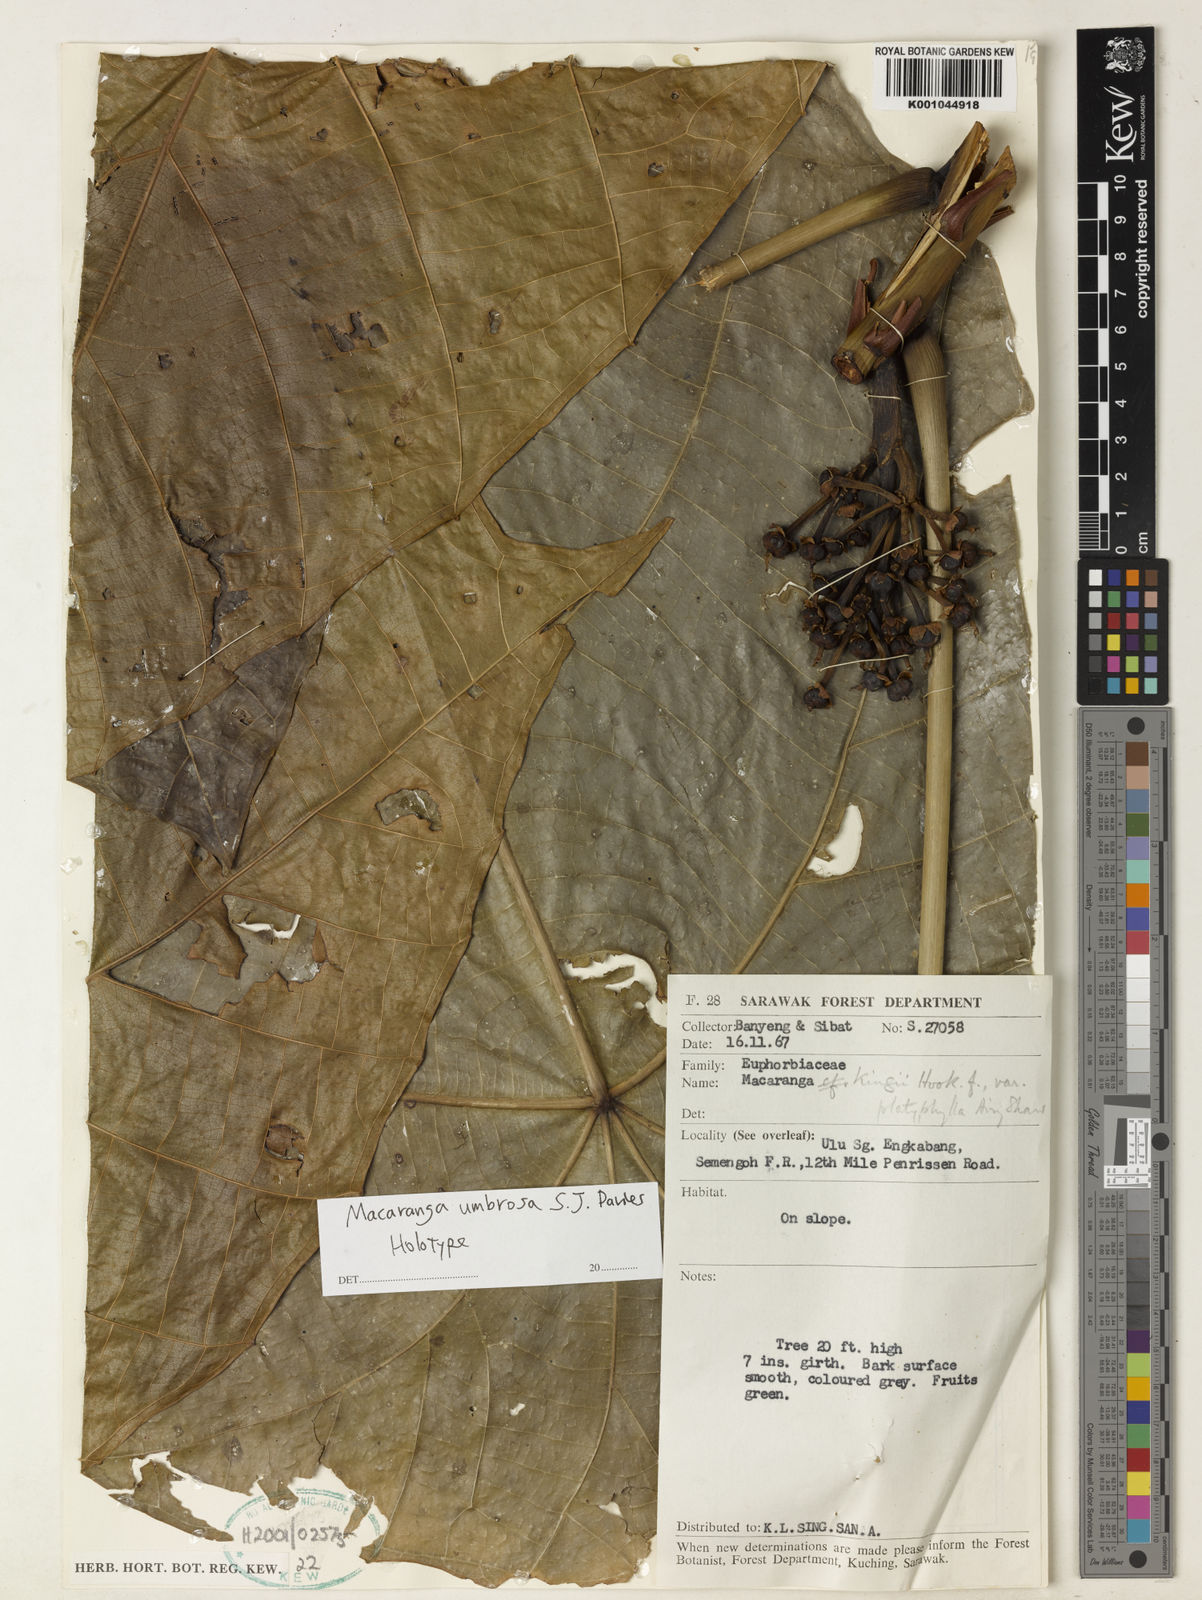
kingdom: Plantae
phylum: Tracheophyta
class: Magnoliopsida
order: Malpighiales
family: Euphorbiaceae
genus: Macaranga
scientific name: Macaranga umbrosa
